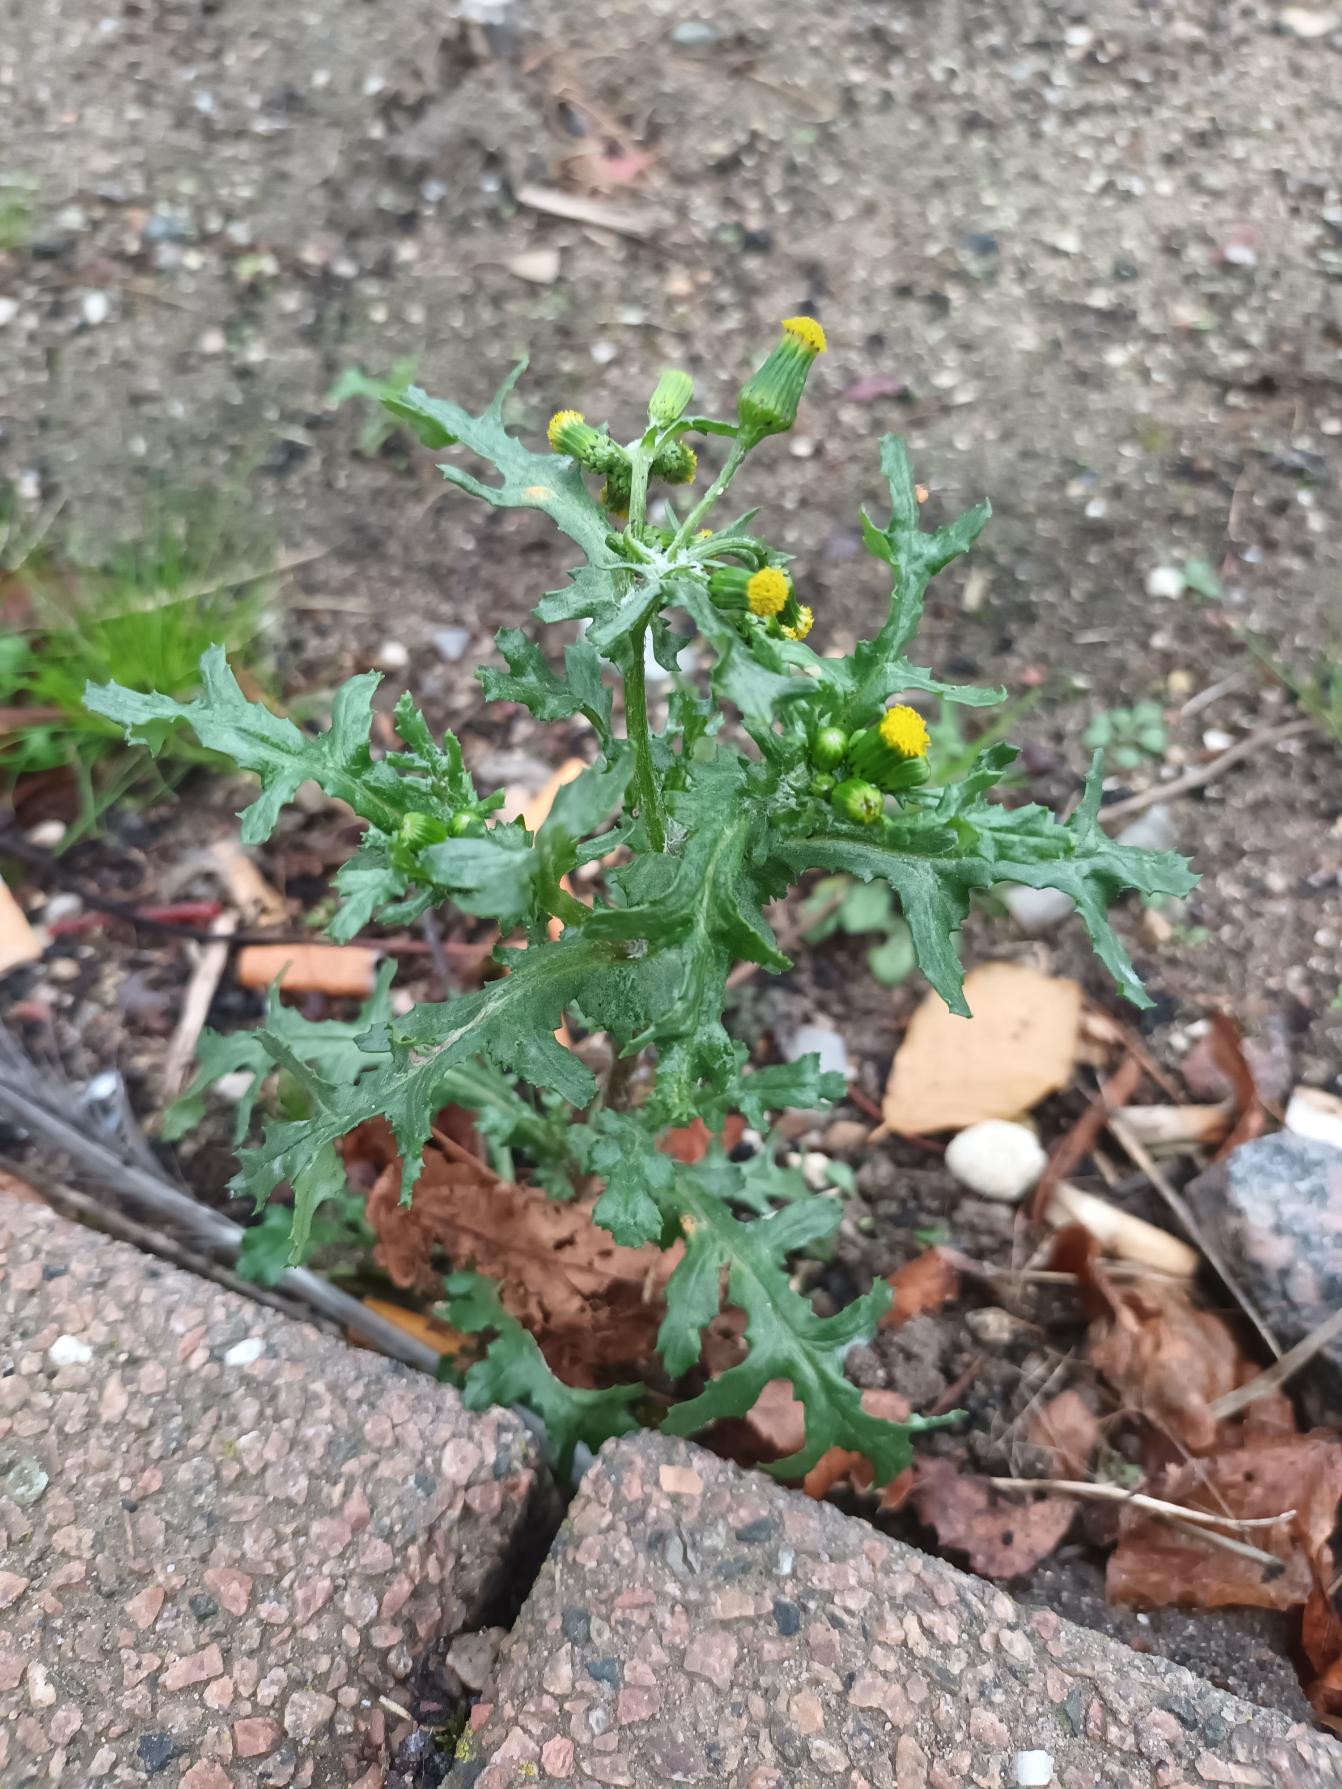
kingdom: Plantae
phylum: Tracheophyta
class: Magnoliopsida
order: Asterales
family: Asteraceae
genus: Senecio
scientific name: Senecio vulgaris
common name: Almindelig brandbæger
